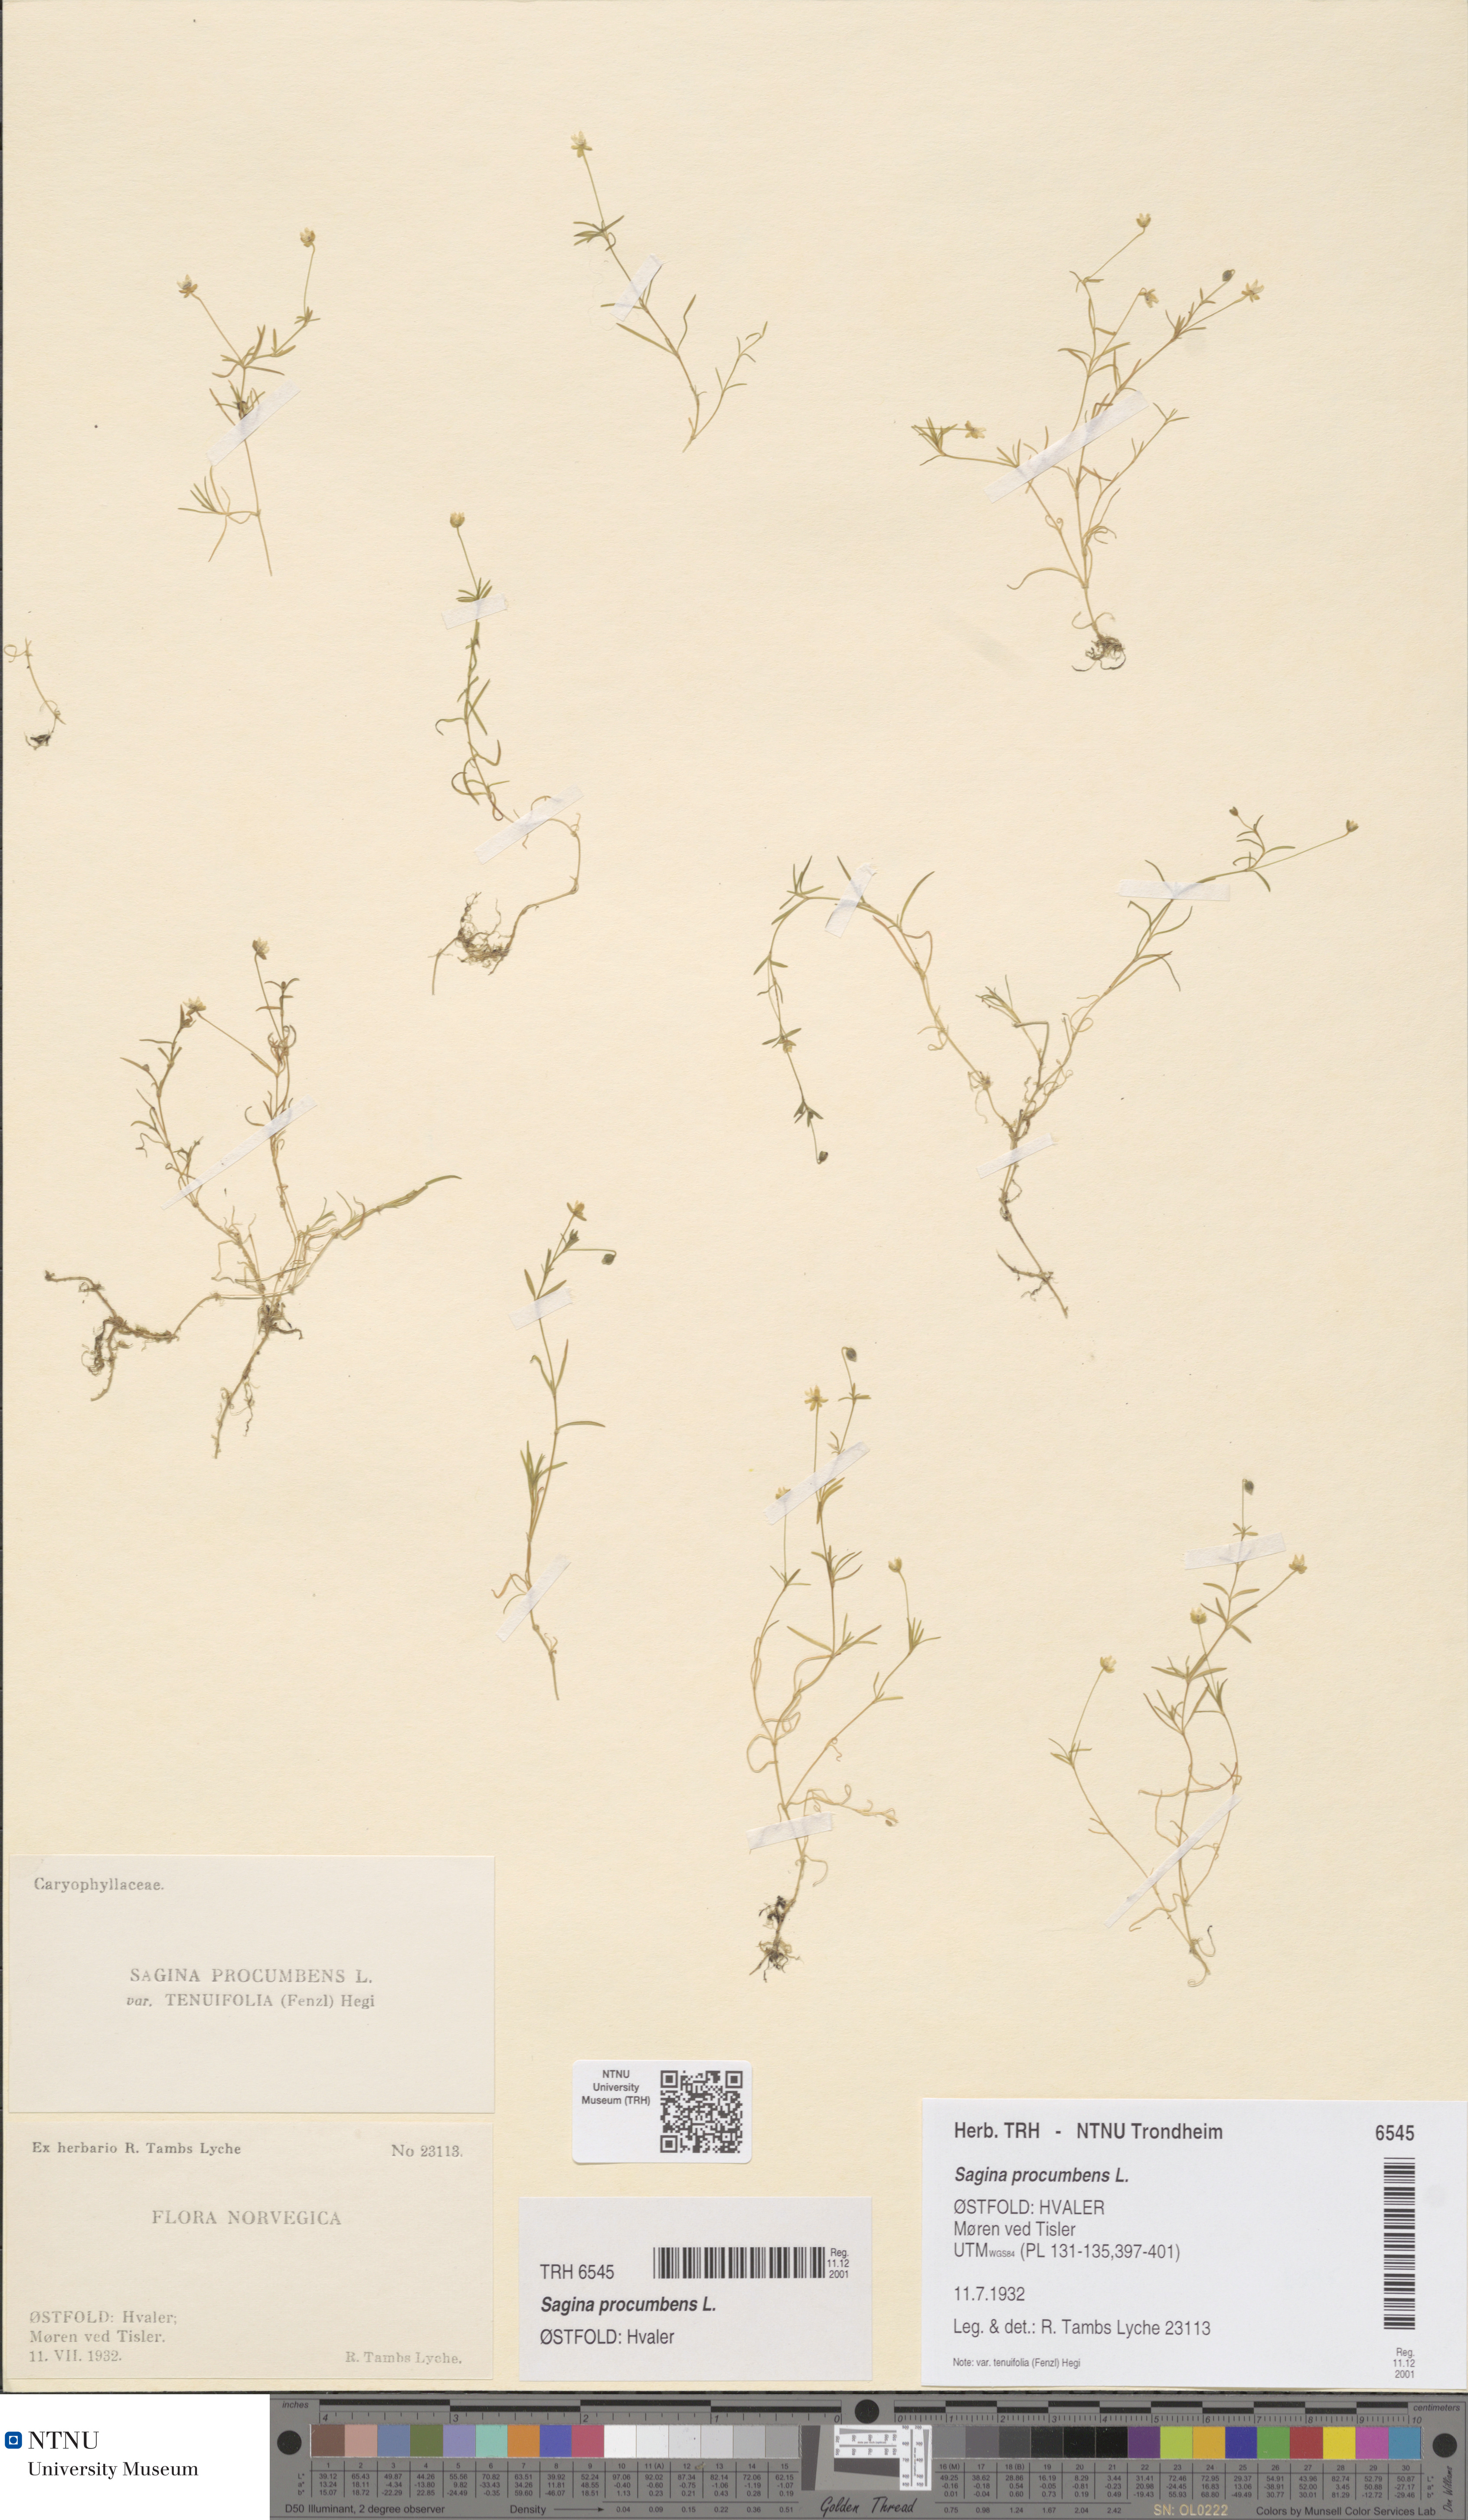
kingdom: Plantae
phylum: Tracheophyta
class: Magnoliopsida
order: Caryophyllales
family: Caryophyllaceae
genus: Sagina
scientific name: Sagina procumbens
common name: Procumbent pearlwort
